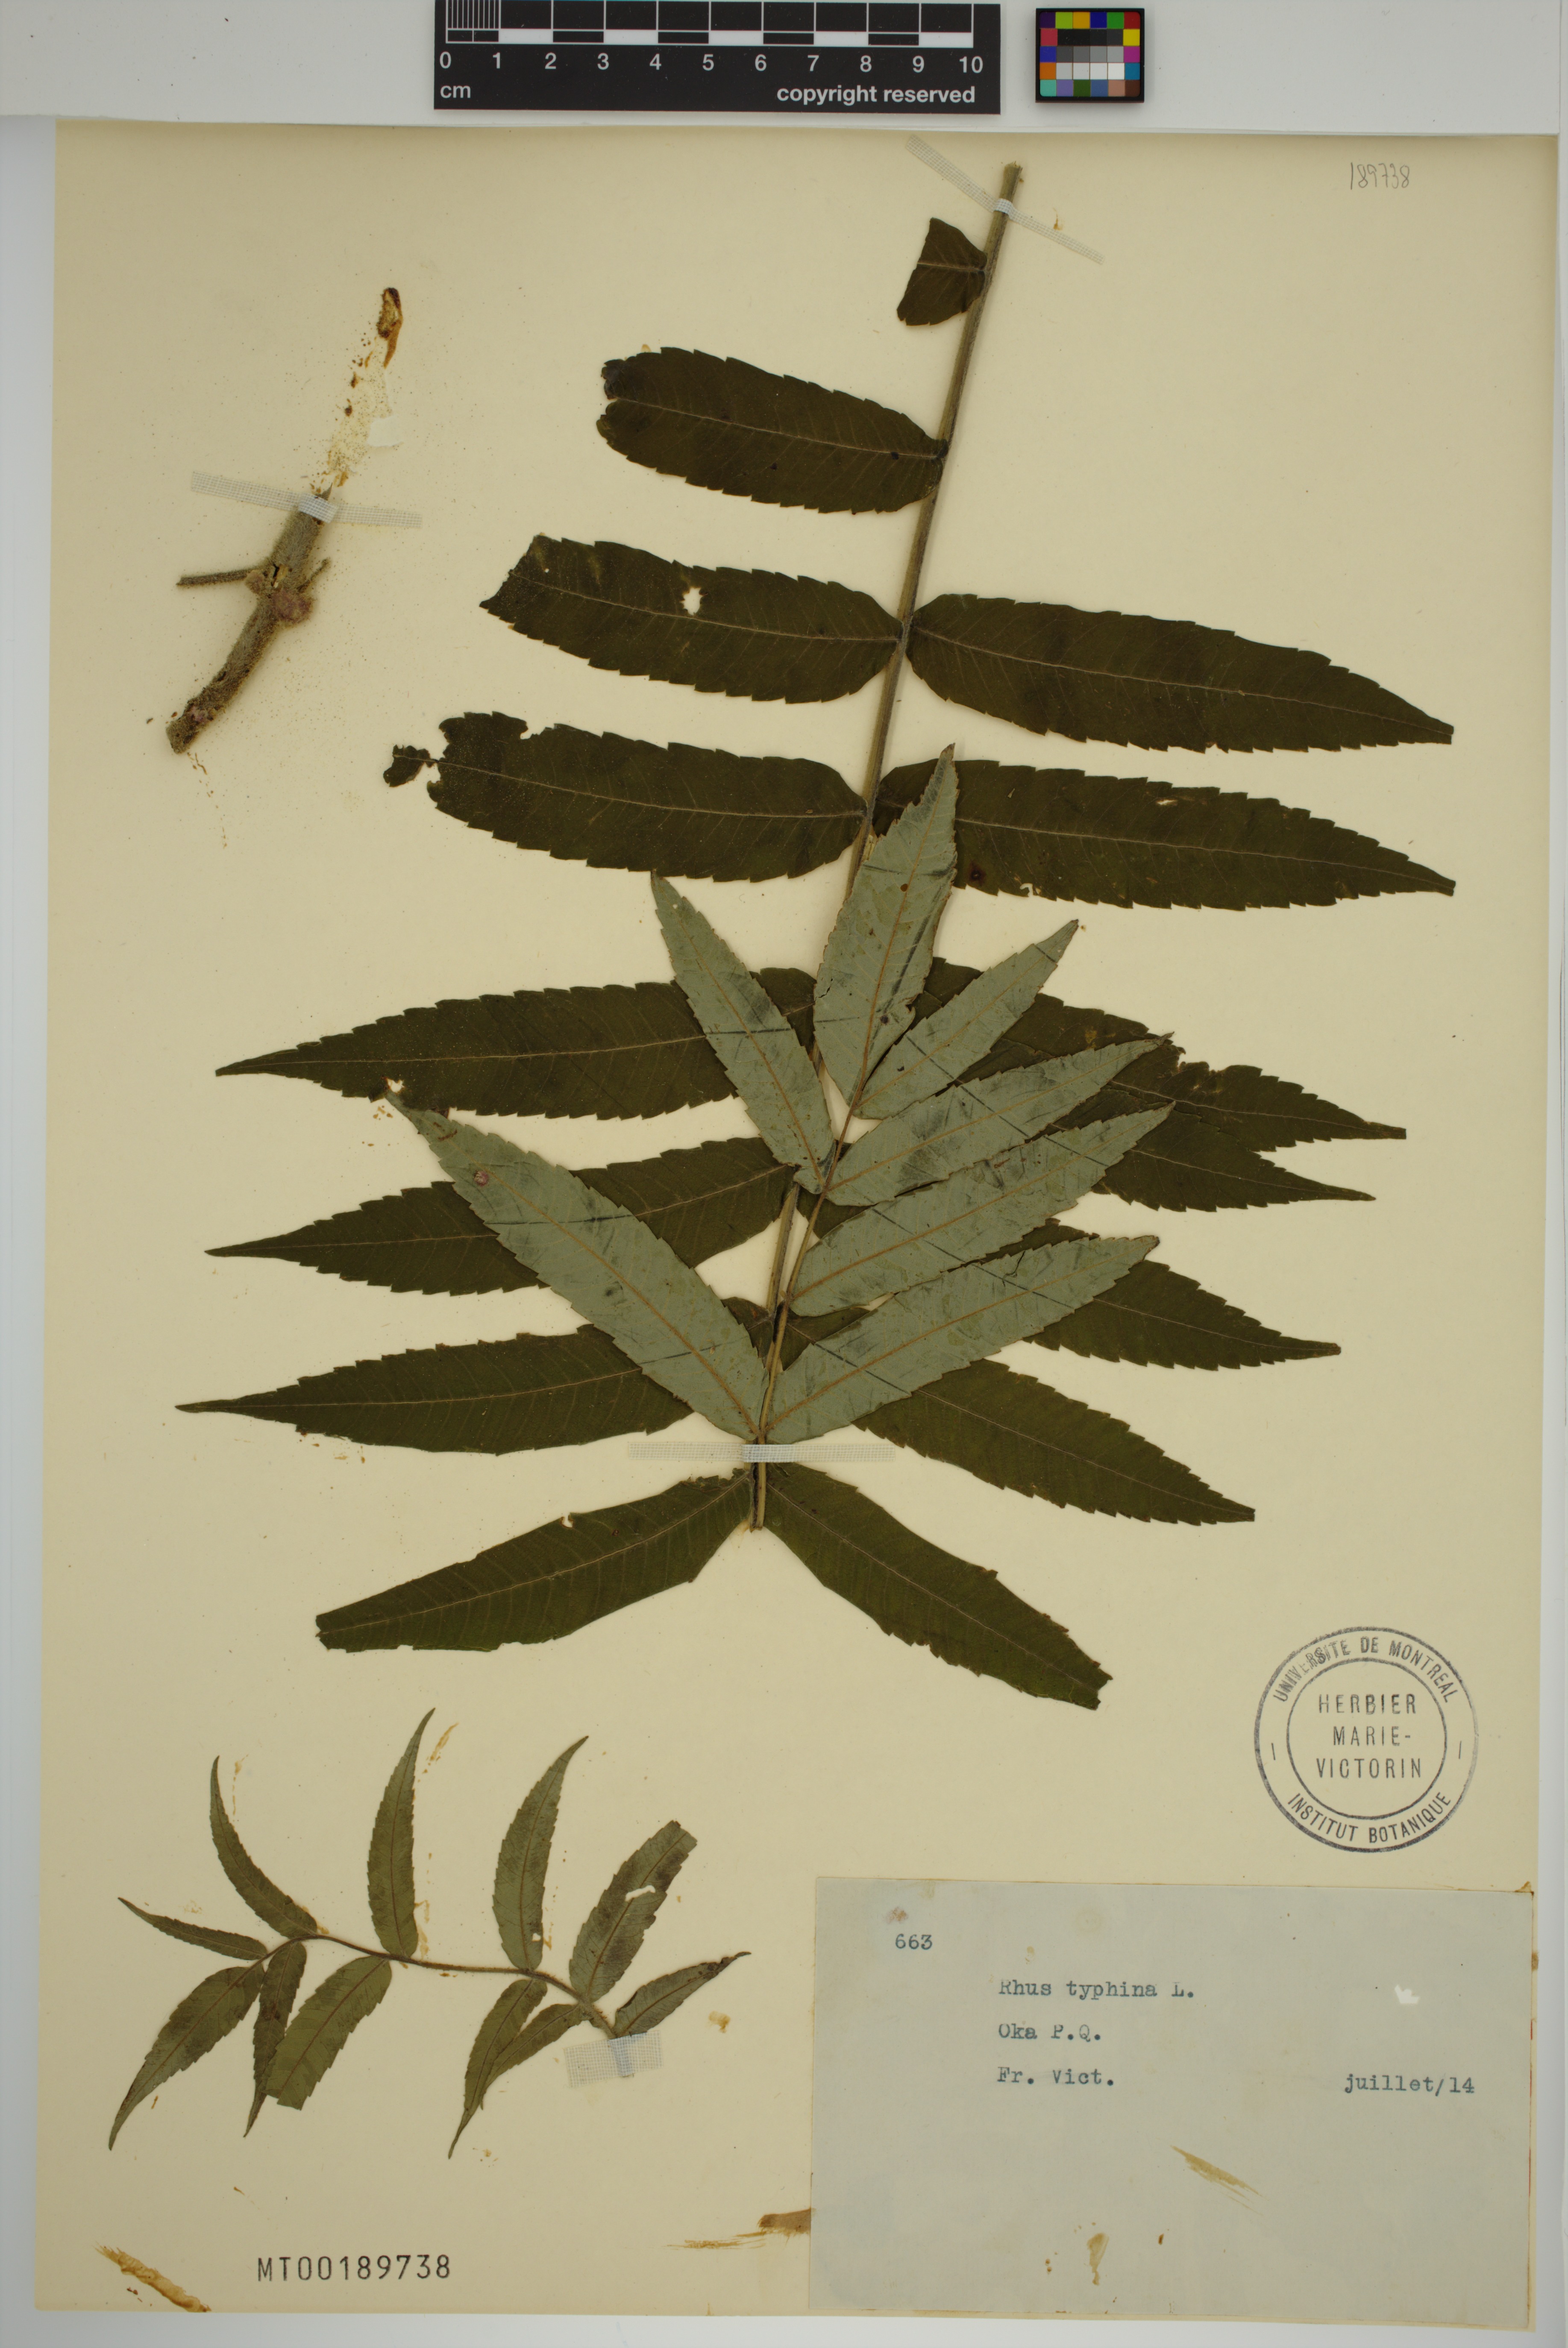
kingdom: Plantae
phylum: Tracheophyta
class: Magnoliopsida
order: Sapindales
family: Anacardiaceae
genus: Rhus
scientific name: Rhus typhina
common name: Staghorn sumac
